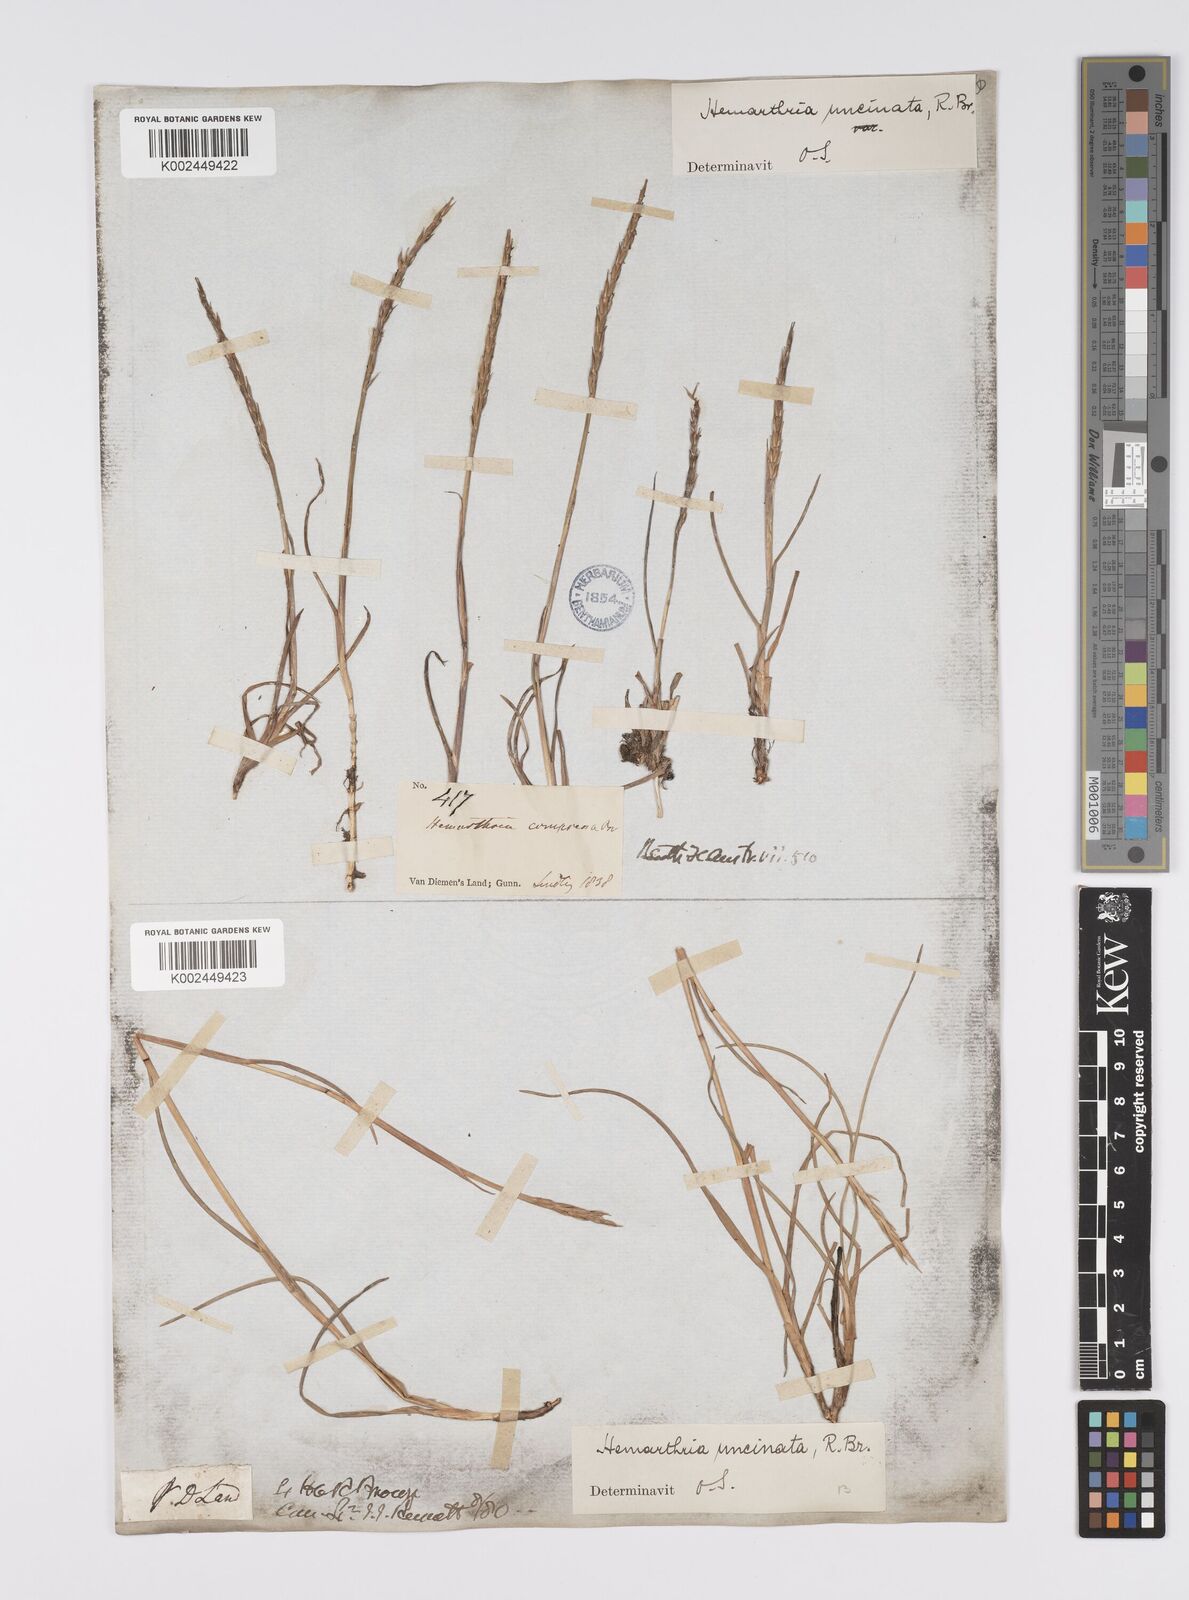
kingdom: Plantae
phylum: Tracheophyta
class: Liliopsida
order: Poales
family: Poaceae
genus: Hemarthria
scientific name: Hemarthria uncinata
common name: Matgrass
